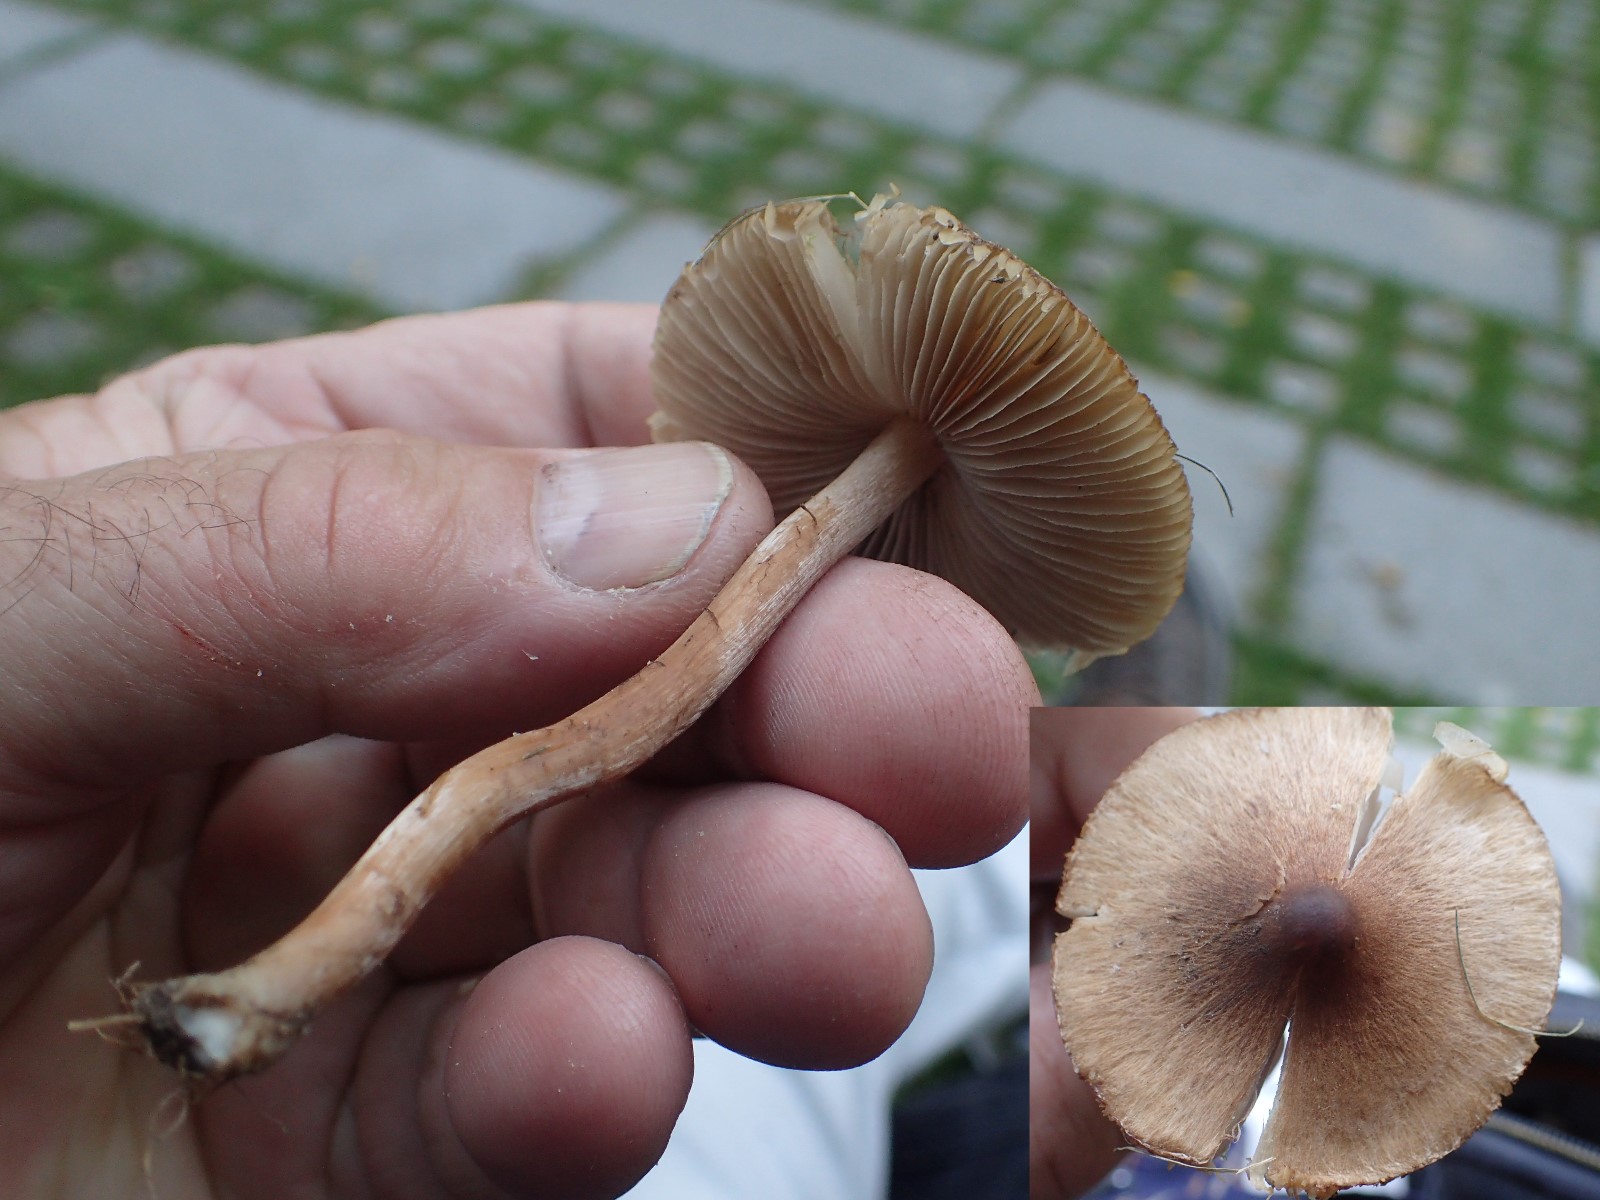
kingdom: Fungi
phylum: Basidiomycota
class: Agaricomycetes
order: Agaricales
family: Inocybaceae
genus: Inocybe
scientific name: Inocybe curvipes
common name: plæne-trævlhat
